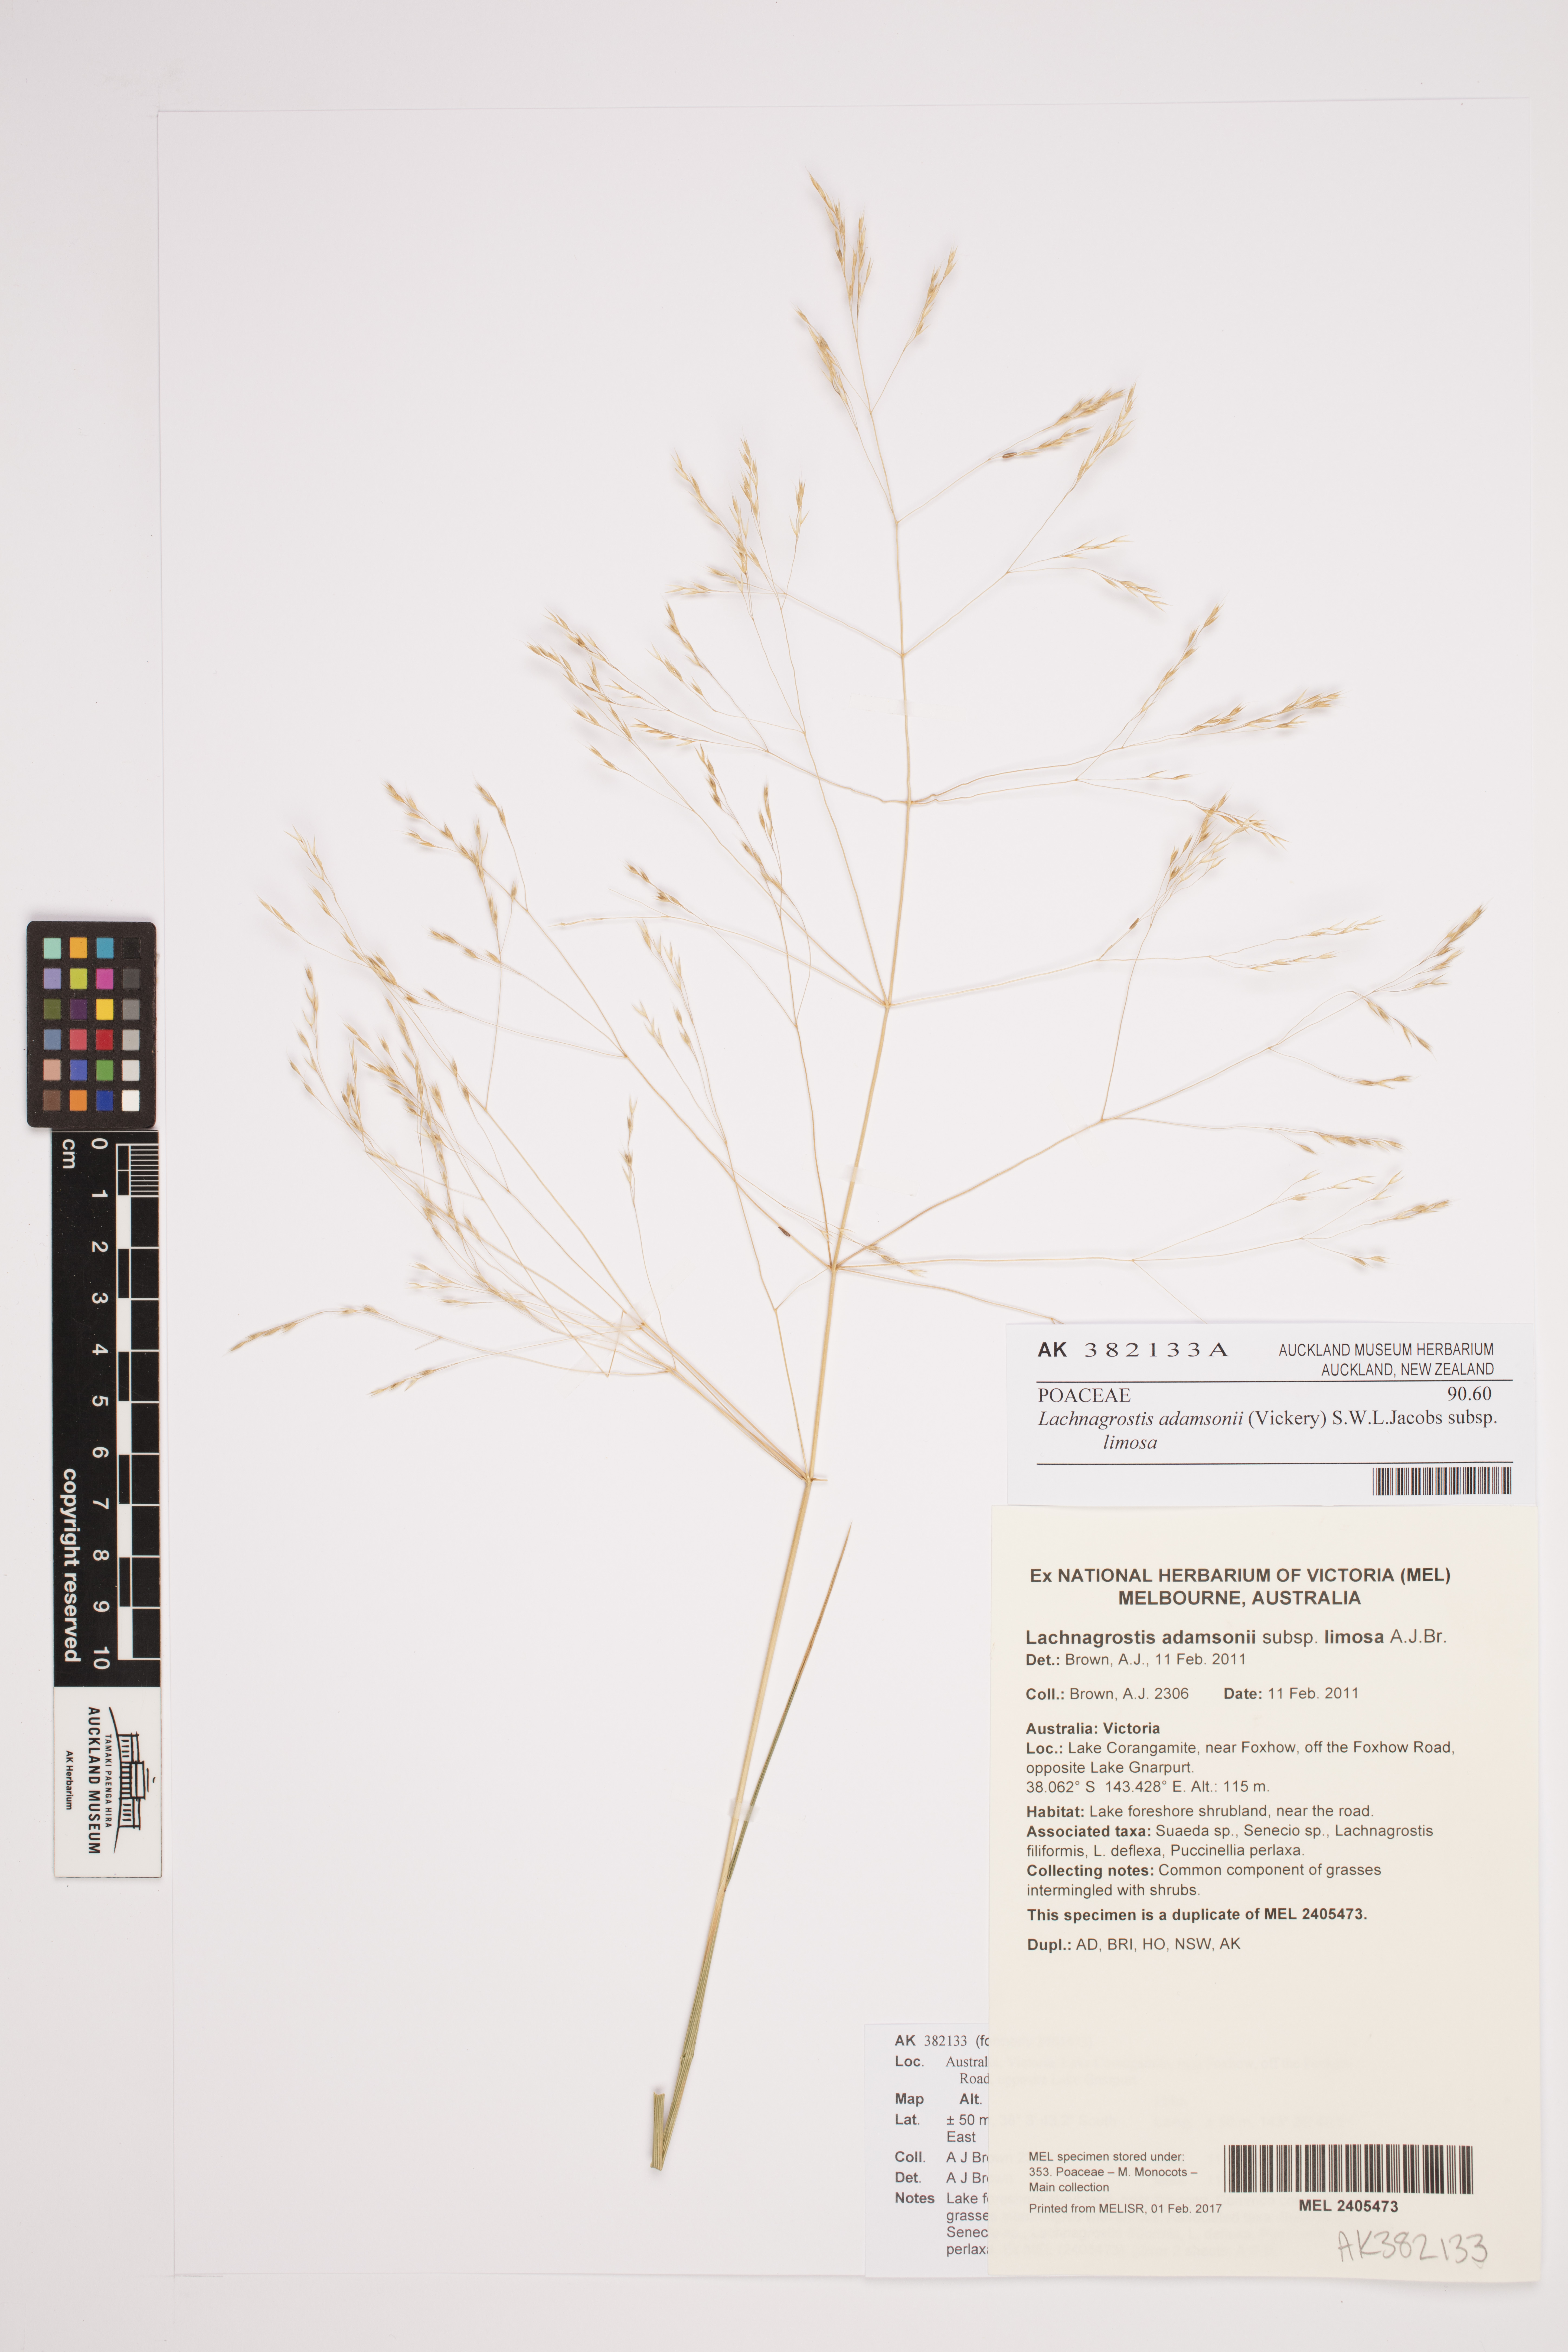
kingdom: Plantae
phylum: Tracheophyta
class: Liliopsida
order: Poales
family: Poaceae
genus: Lachnagrostis
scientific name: Lachnagrostis adamsonii
